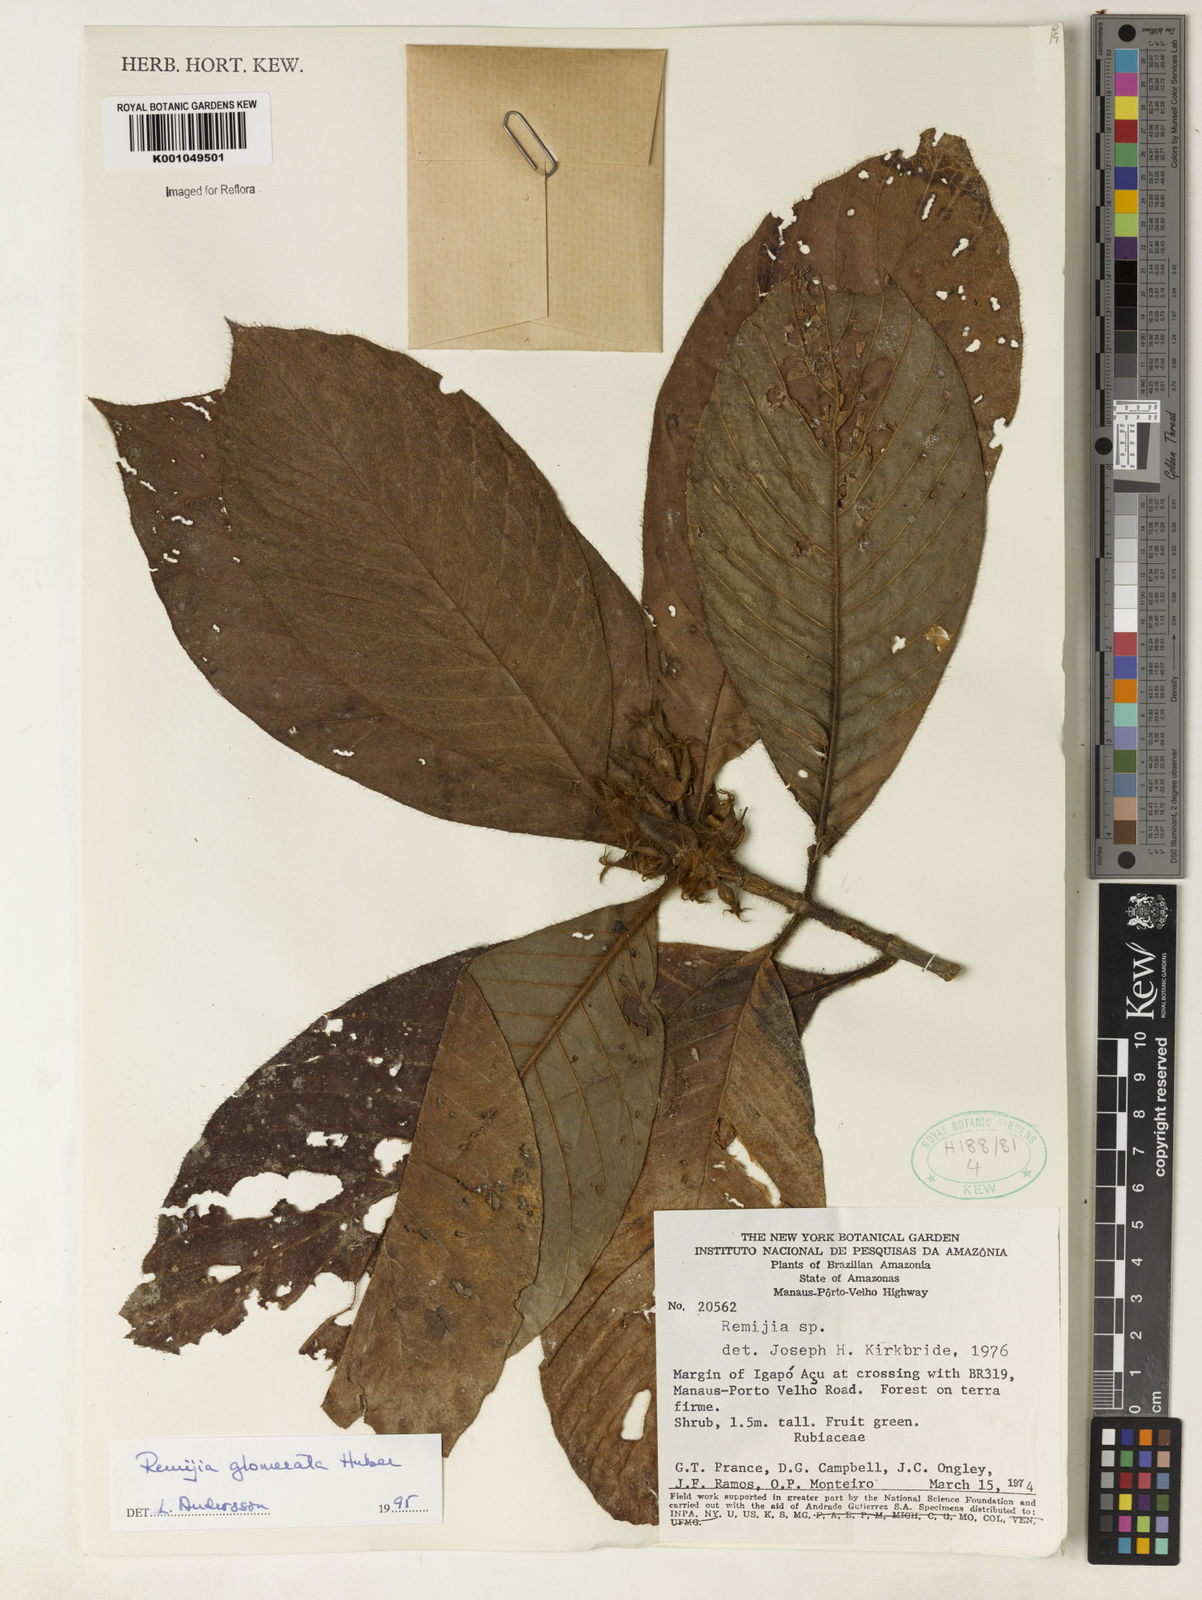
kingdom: Plantae
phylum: Tracheophyta
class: Magnoliopsida
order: Gentianales
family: Rubiaceae
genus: Remijia
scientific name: Remijia glomerata
